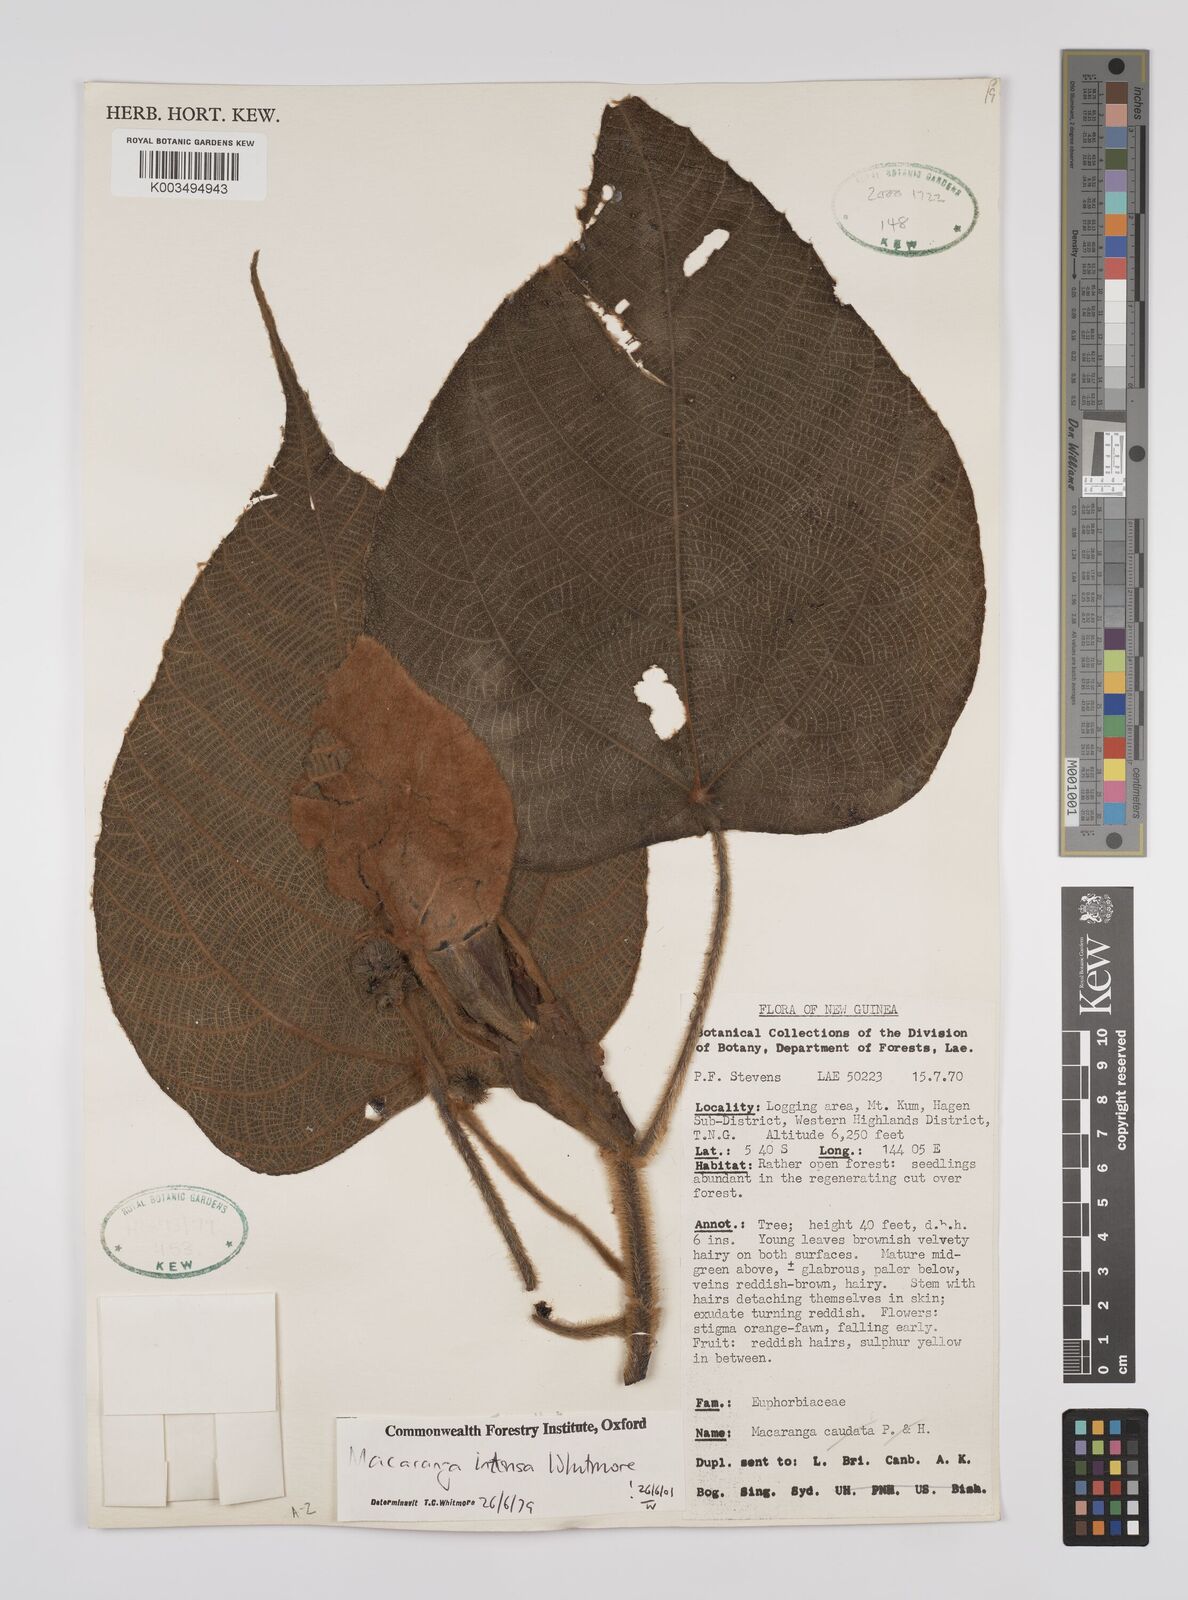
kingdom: Plantae
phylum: Tracheophyta
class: Magnoliopsida
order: Malpighiales
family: Euphorbiaceae
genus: Macaranga
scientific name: Macaranga intonsa
